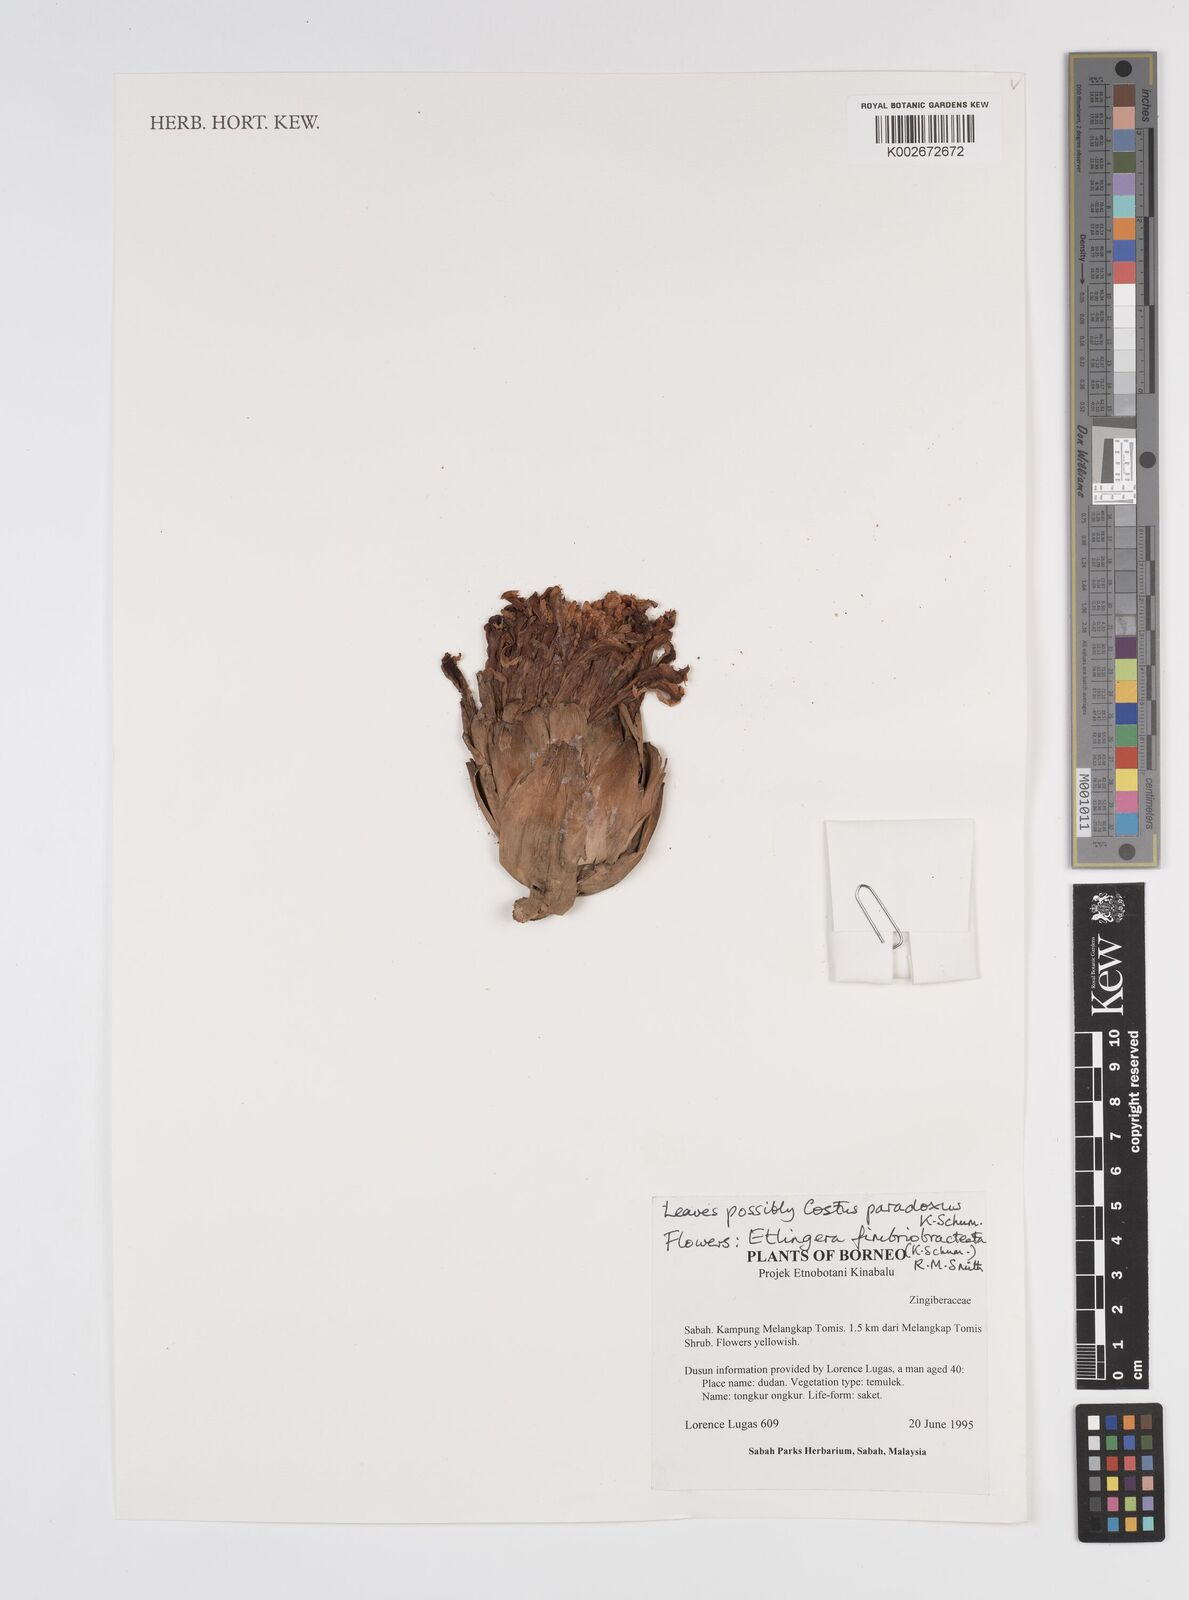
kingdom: Plantae
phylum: Tracheophyta
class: Liliopsida
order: Zingiberales
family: Zingiberaceae
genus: Etlingera
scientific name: Etlingera fimbriobracteata
